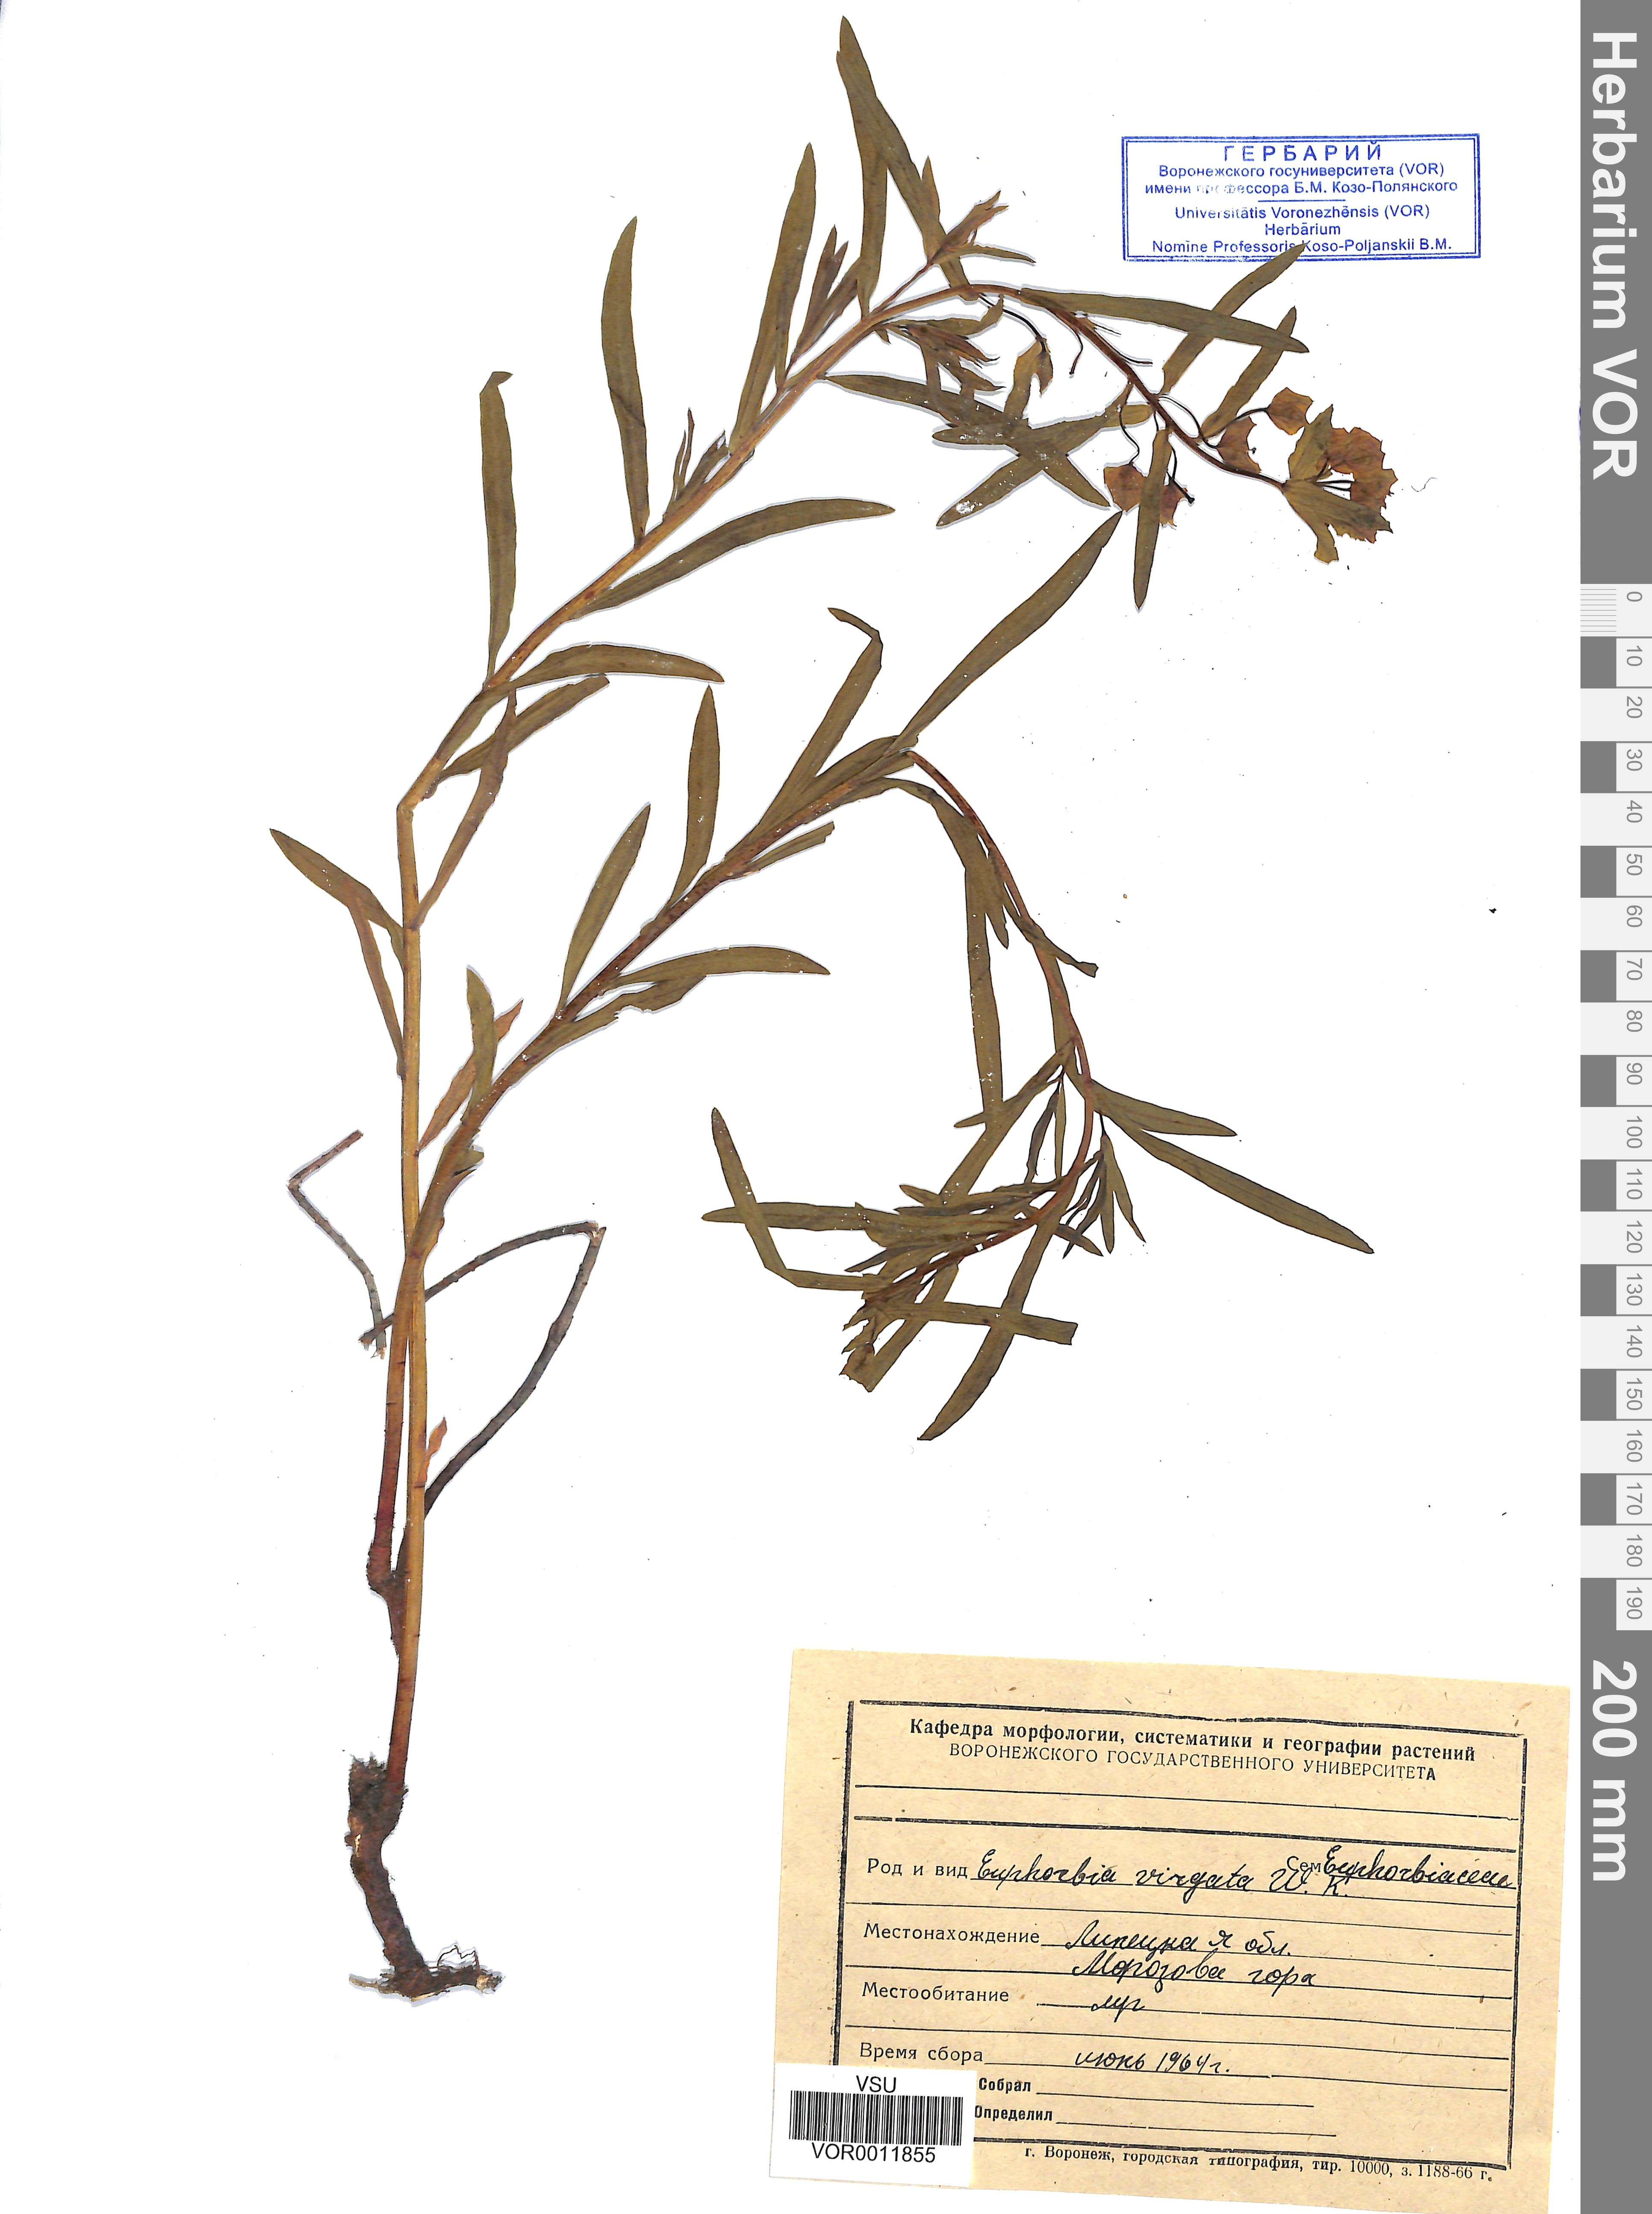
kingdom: Plantae
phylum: Tracheophyta
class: Magnoliopsida
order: Malpighiales
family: Euphorbiaceae
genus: Euphorbia
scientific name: Euphorbia virgata
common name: Leafy spurge
